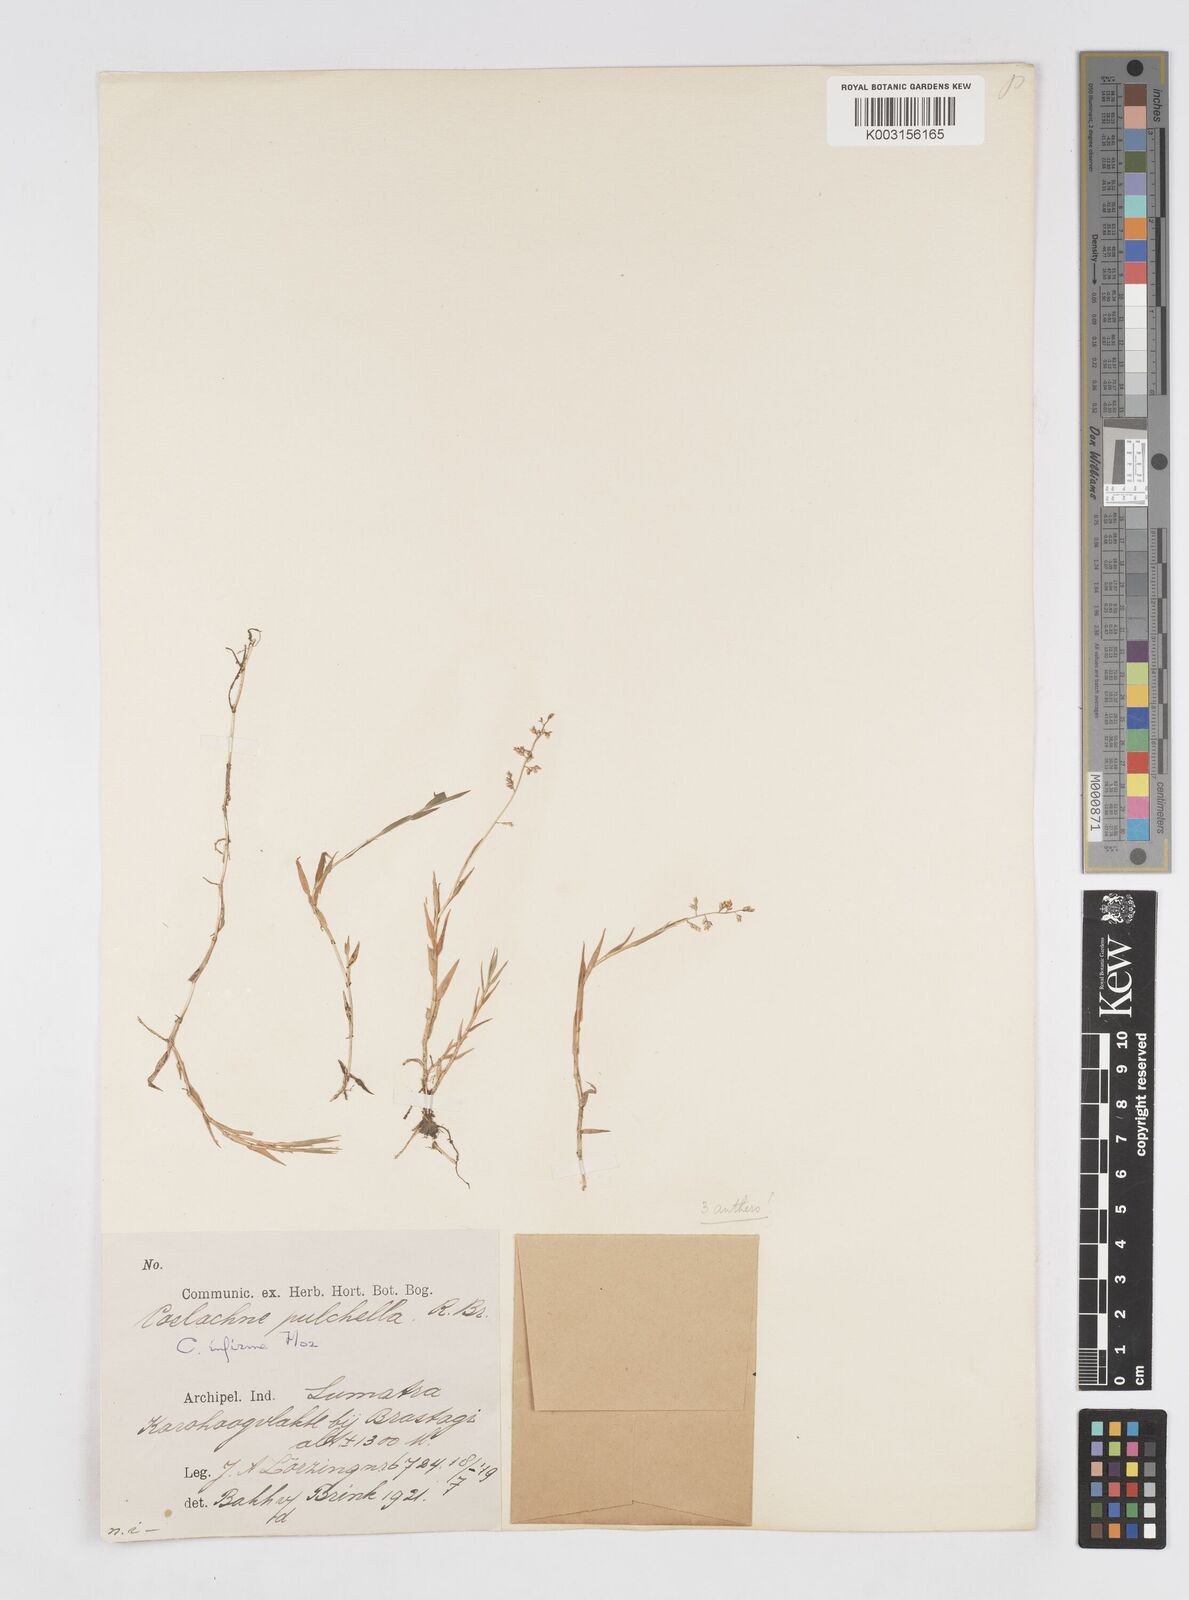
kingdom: Plantae
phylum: Tracheophyta
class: Liliopsida
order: Poales
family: Poaceae
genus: Coelachne
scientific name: Coelachne infirma
